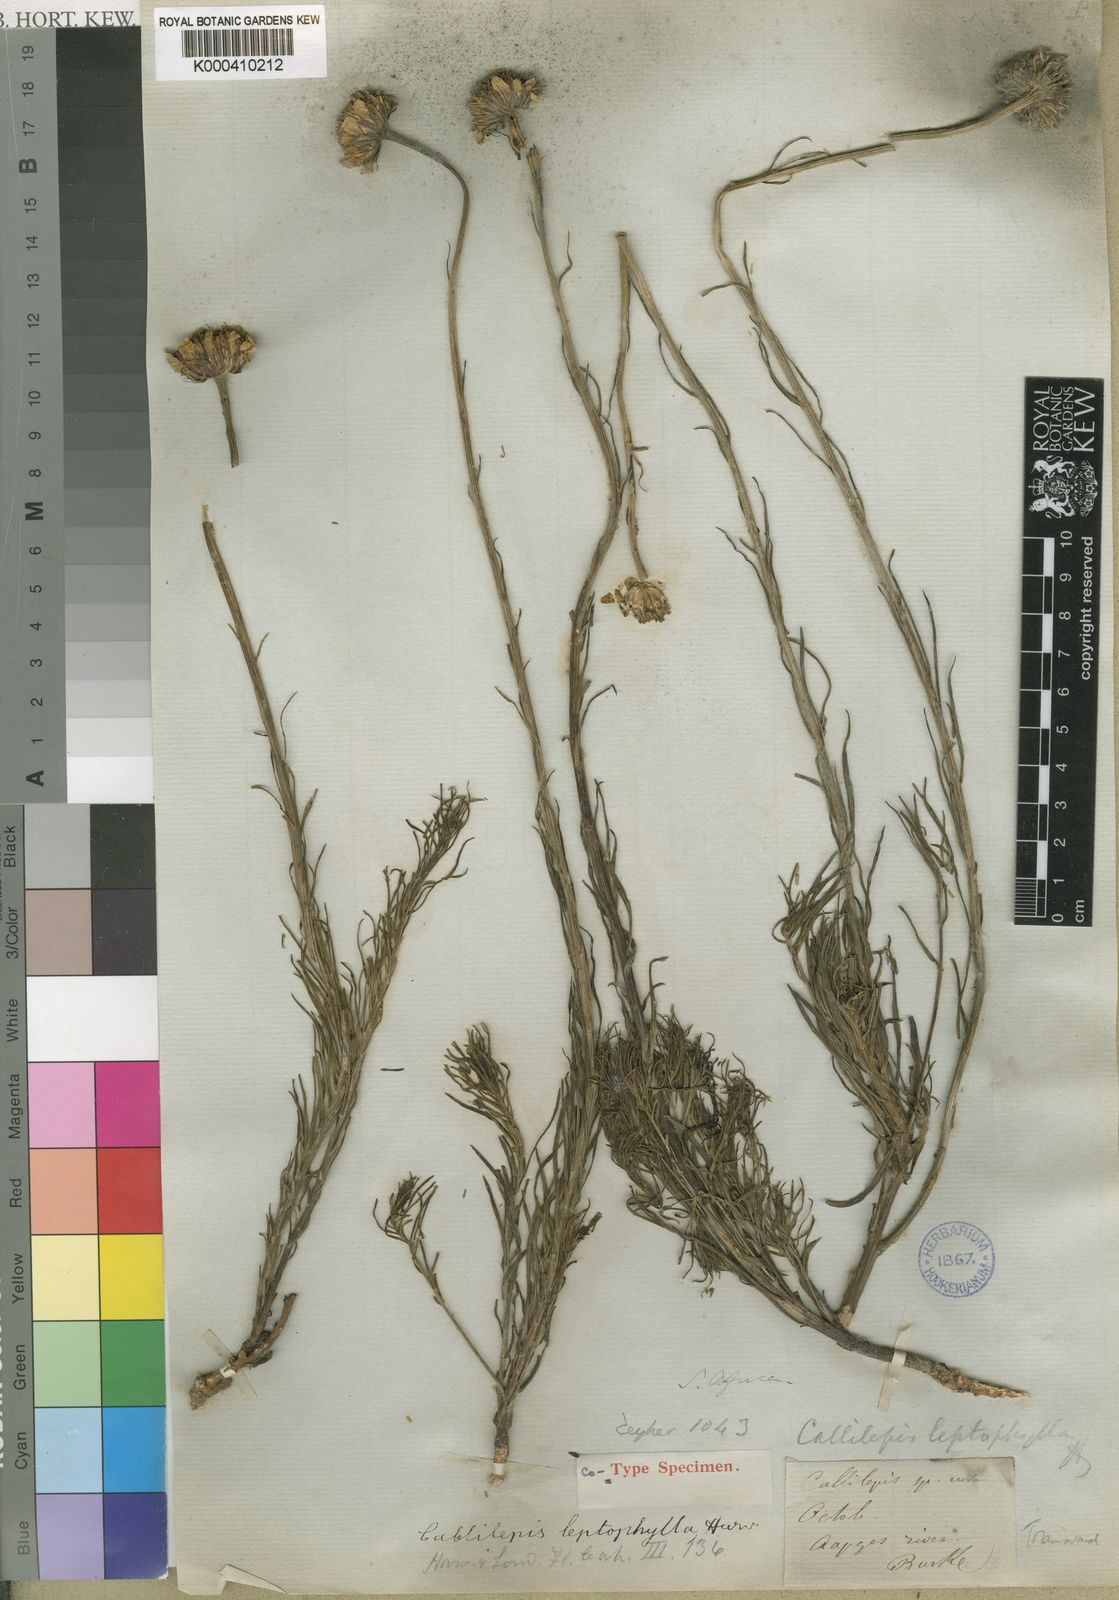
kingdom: Plantae
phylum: Tracheophyta
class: Magnoliopsida
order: Asterales
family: Asteraceae
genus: Callilepis
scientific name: Callilepis leptophylla
